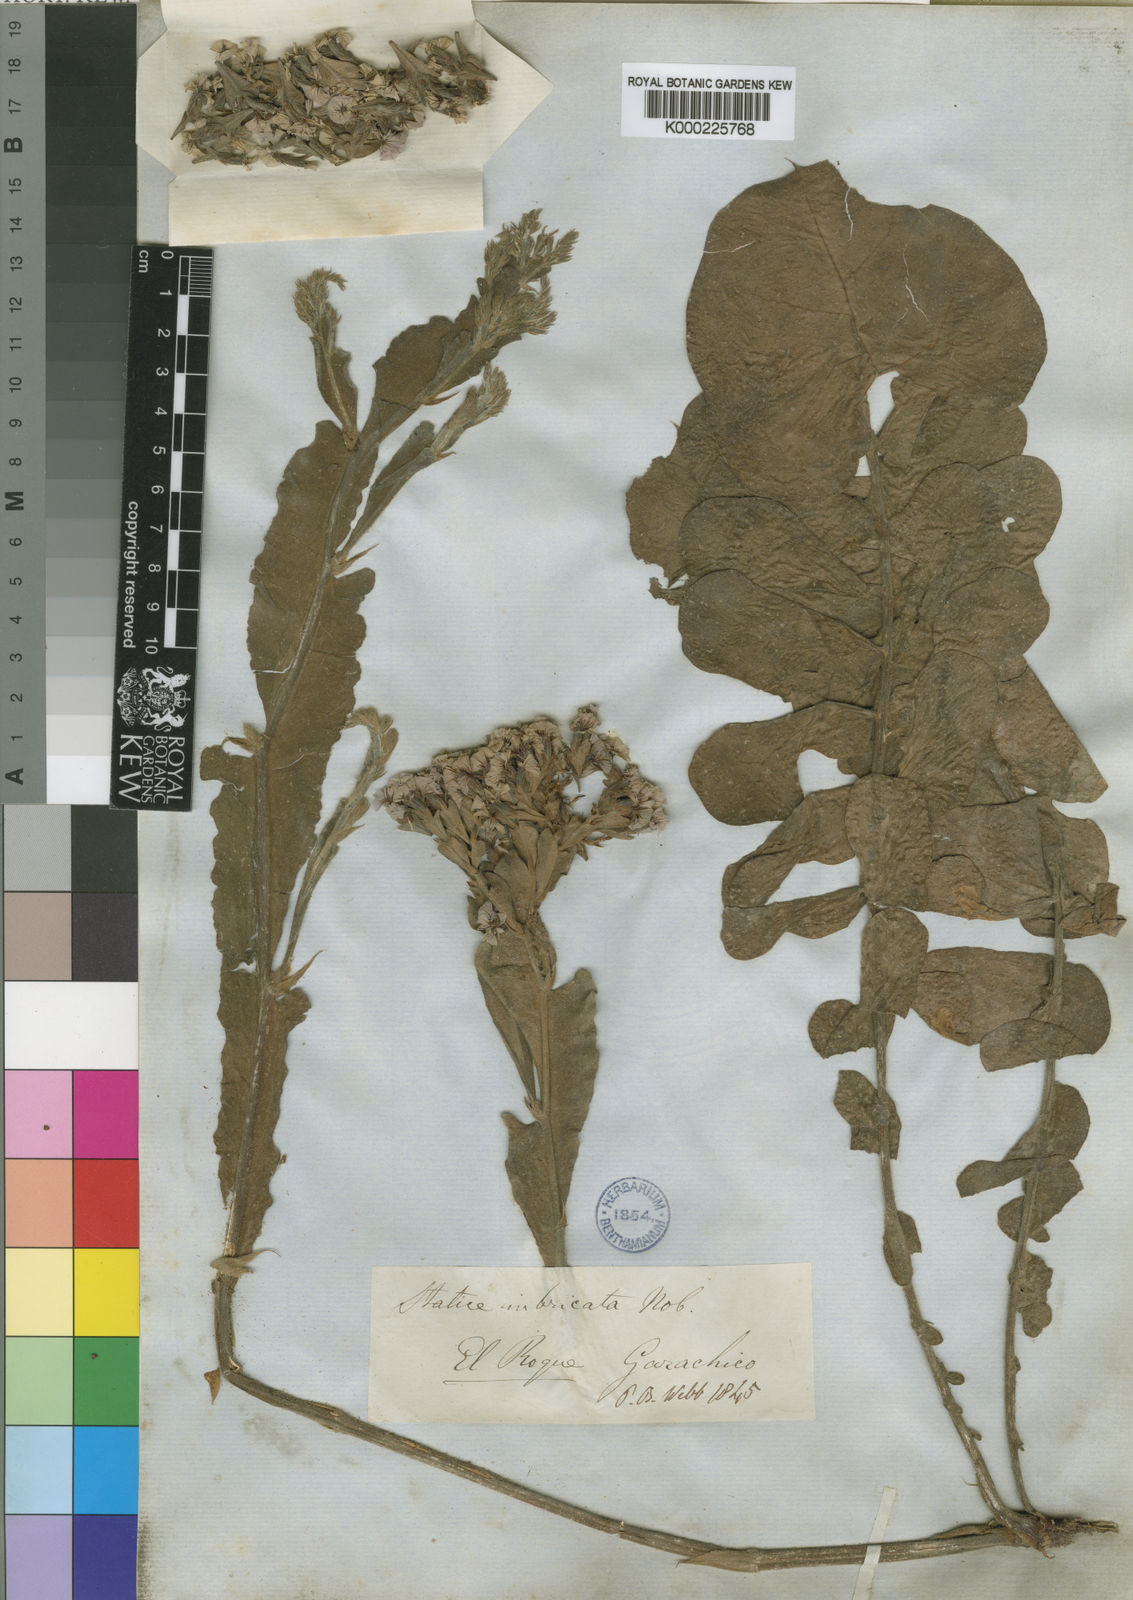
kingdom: Plantae
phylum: Tracheophyta
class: Magnoliopsida
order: Caryophyllales
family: Plumbaginaceae
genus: Limonium
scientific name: Limonium imbricatum
